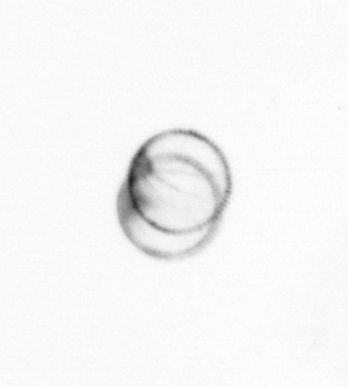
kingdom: Chromista
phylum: Myzozoa
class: Dinophyceae
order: Noctilucales
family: Noctilucaceae
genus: Noctiluca
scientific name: Noctiluca scintillans
